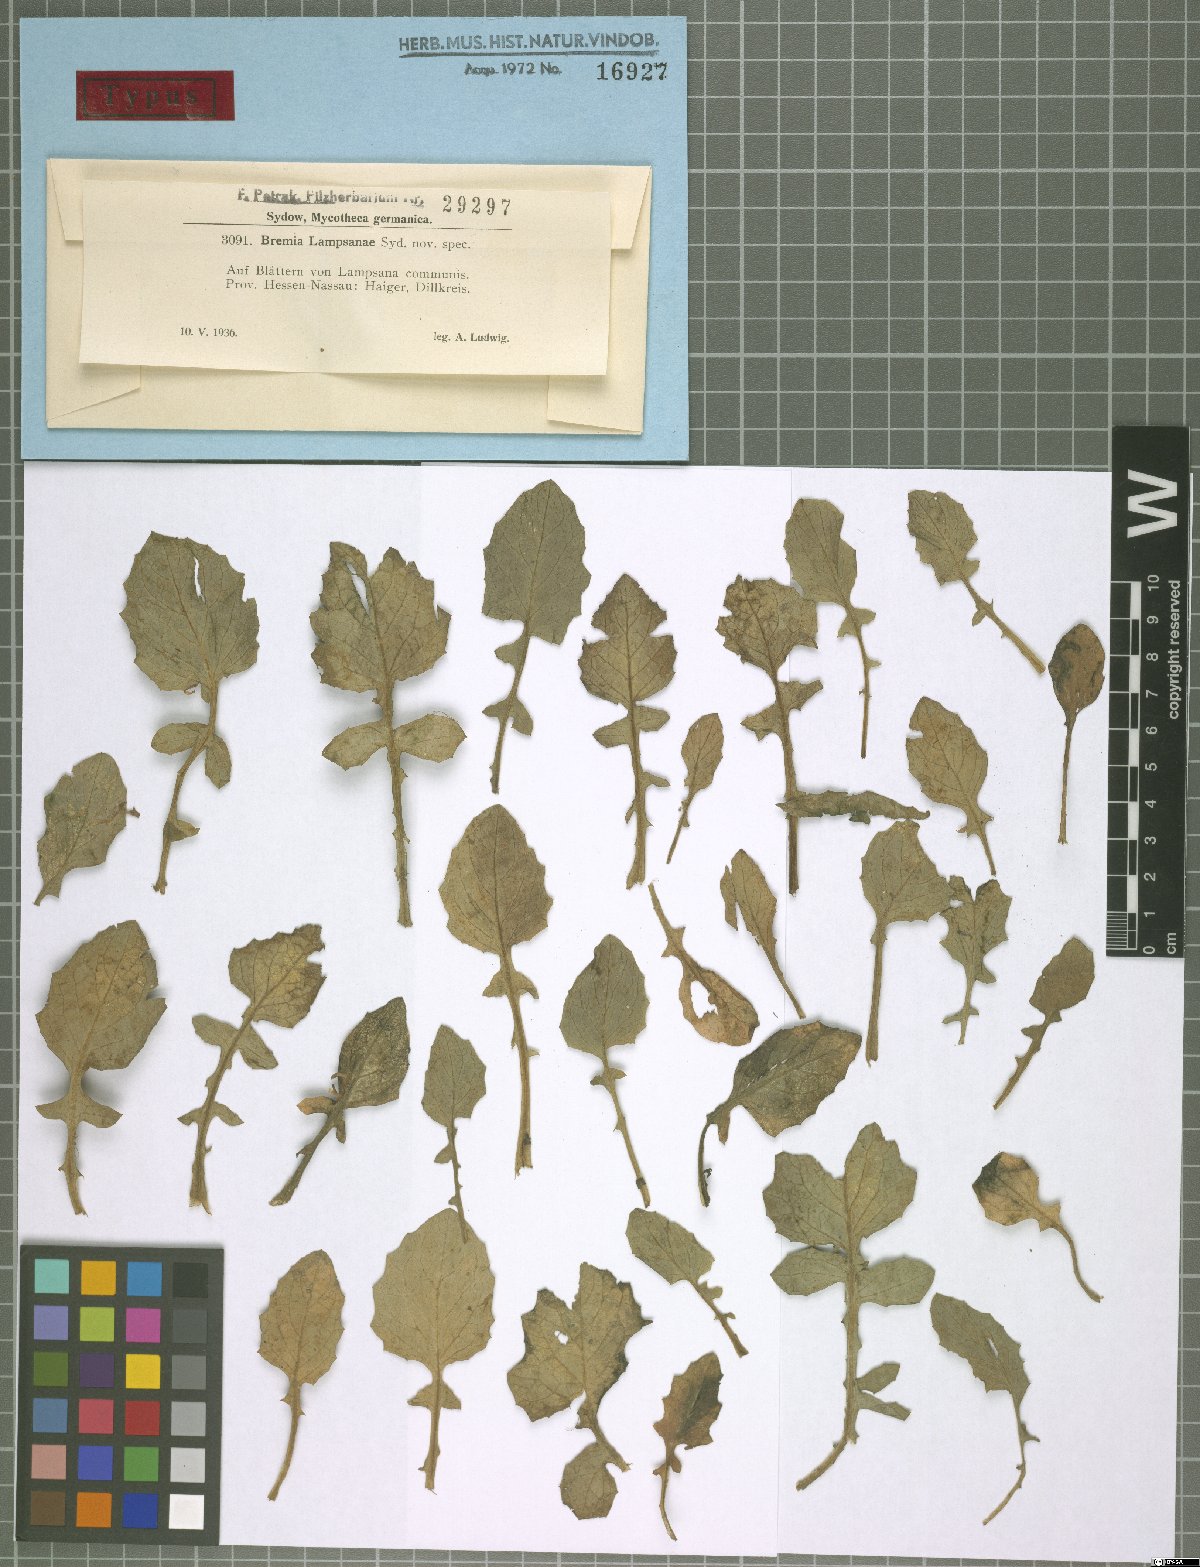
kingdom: Chromista
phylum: Oomycota
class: Peronosporea
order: Peronosporales
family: Peronosporaceae
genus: Bremia
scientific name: Bremia lapsanae
